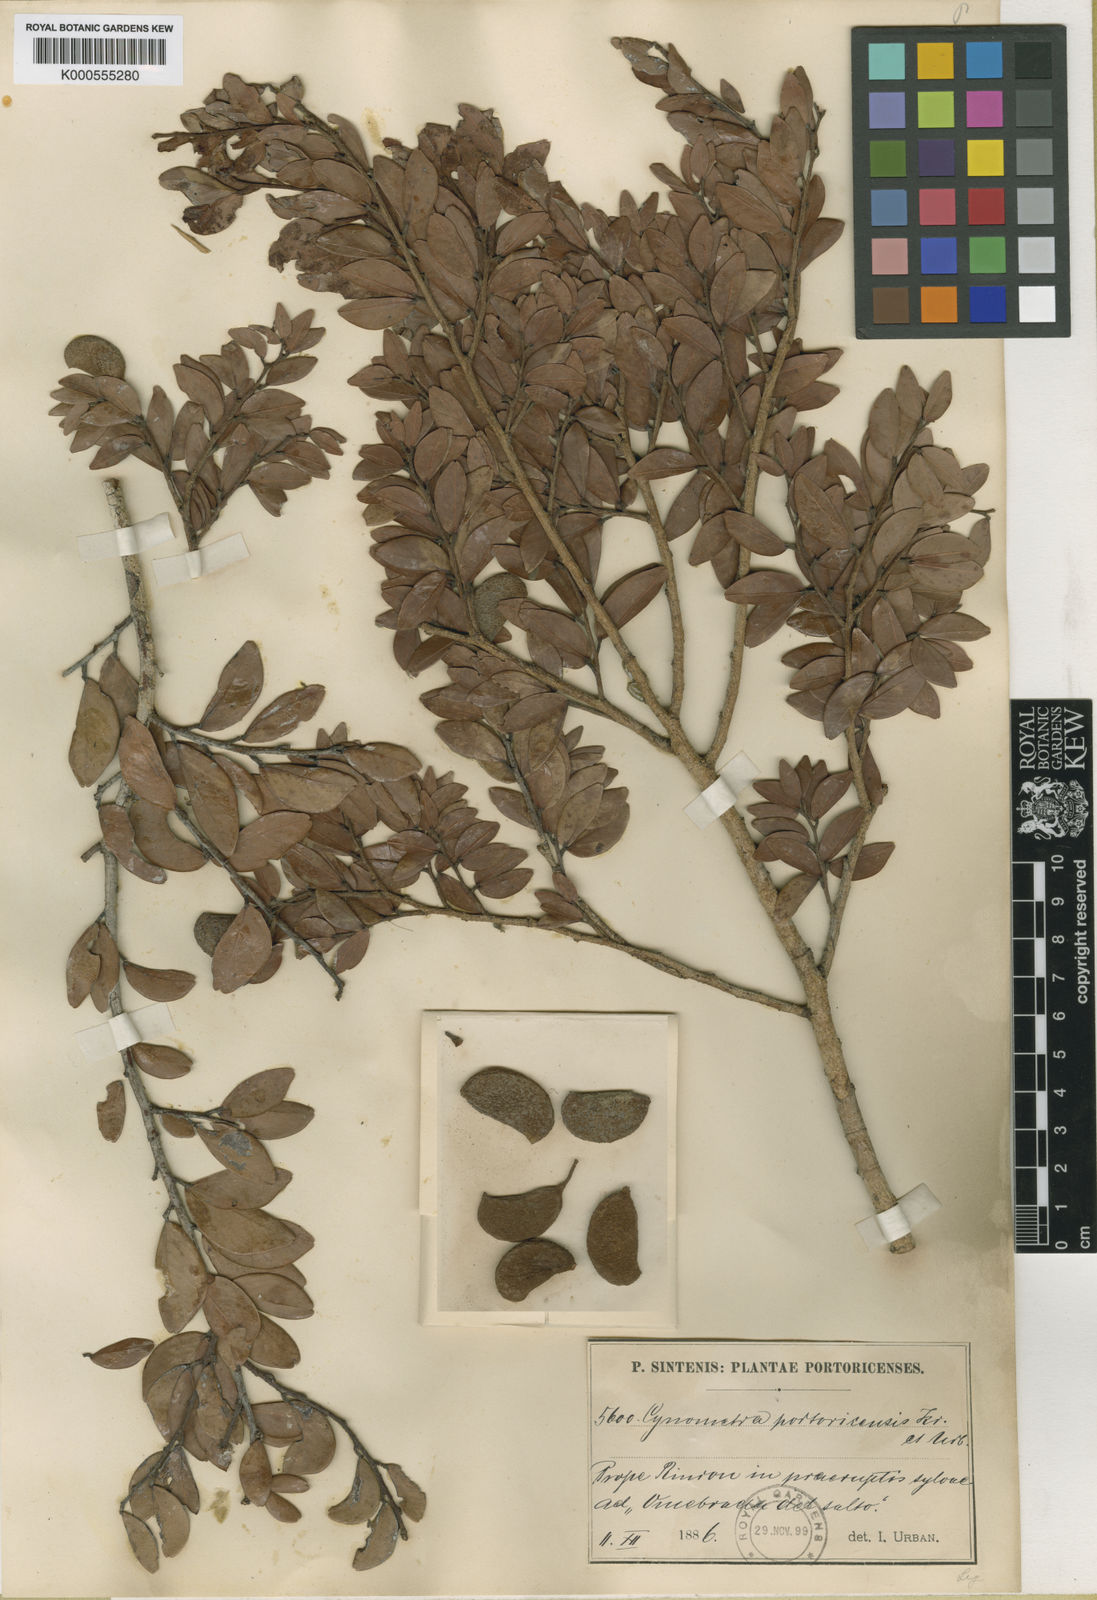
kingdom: Plantae
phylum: Tracheophyta
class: Magnoliopsida
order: Fabales
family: Fabaceae
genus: Cynometra
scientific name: Cynometra portoricensis
